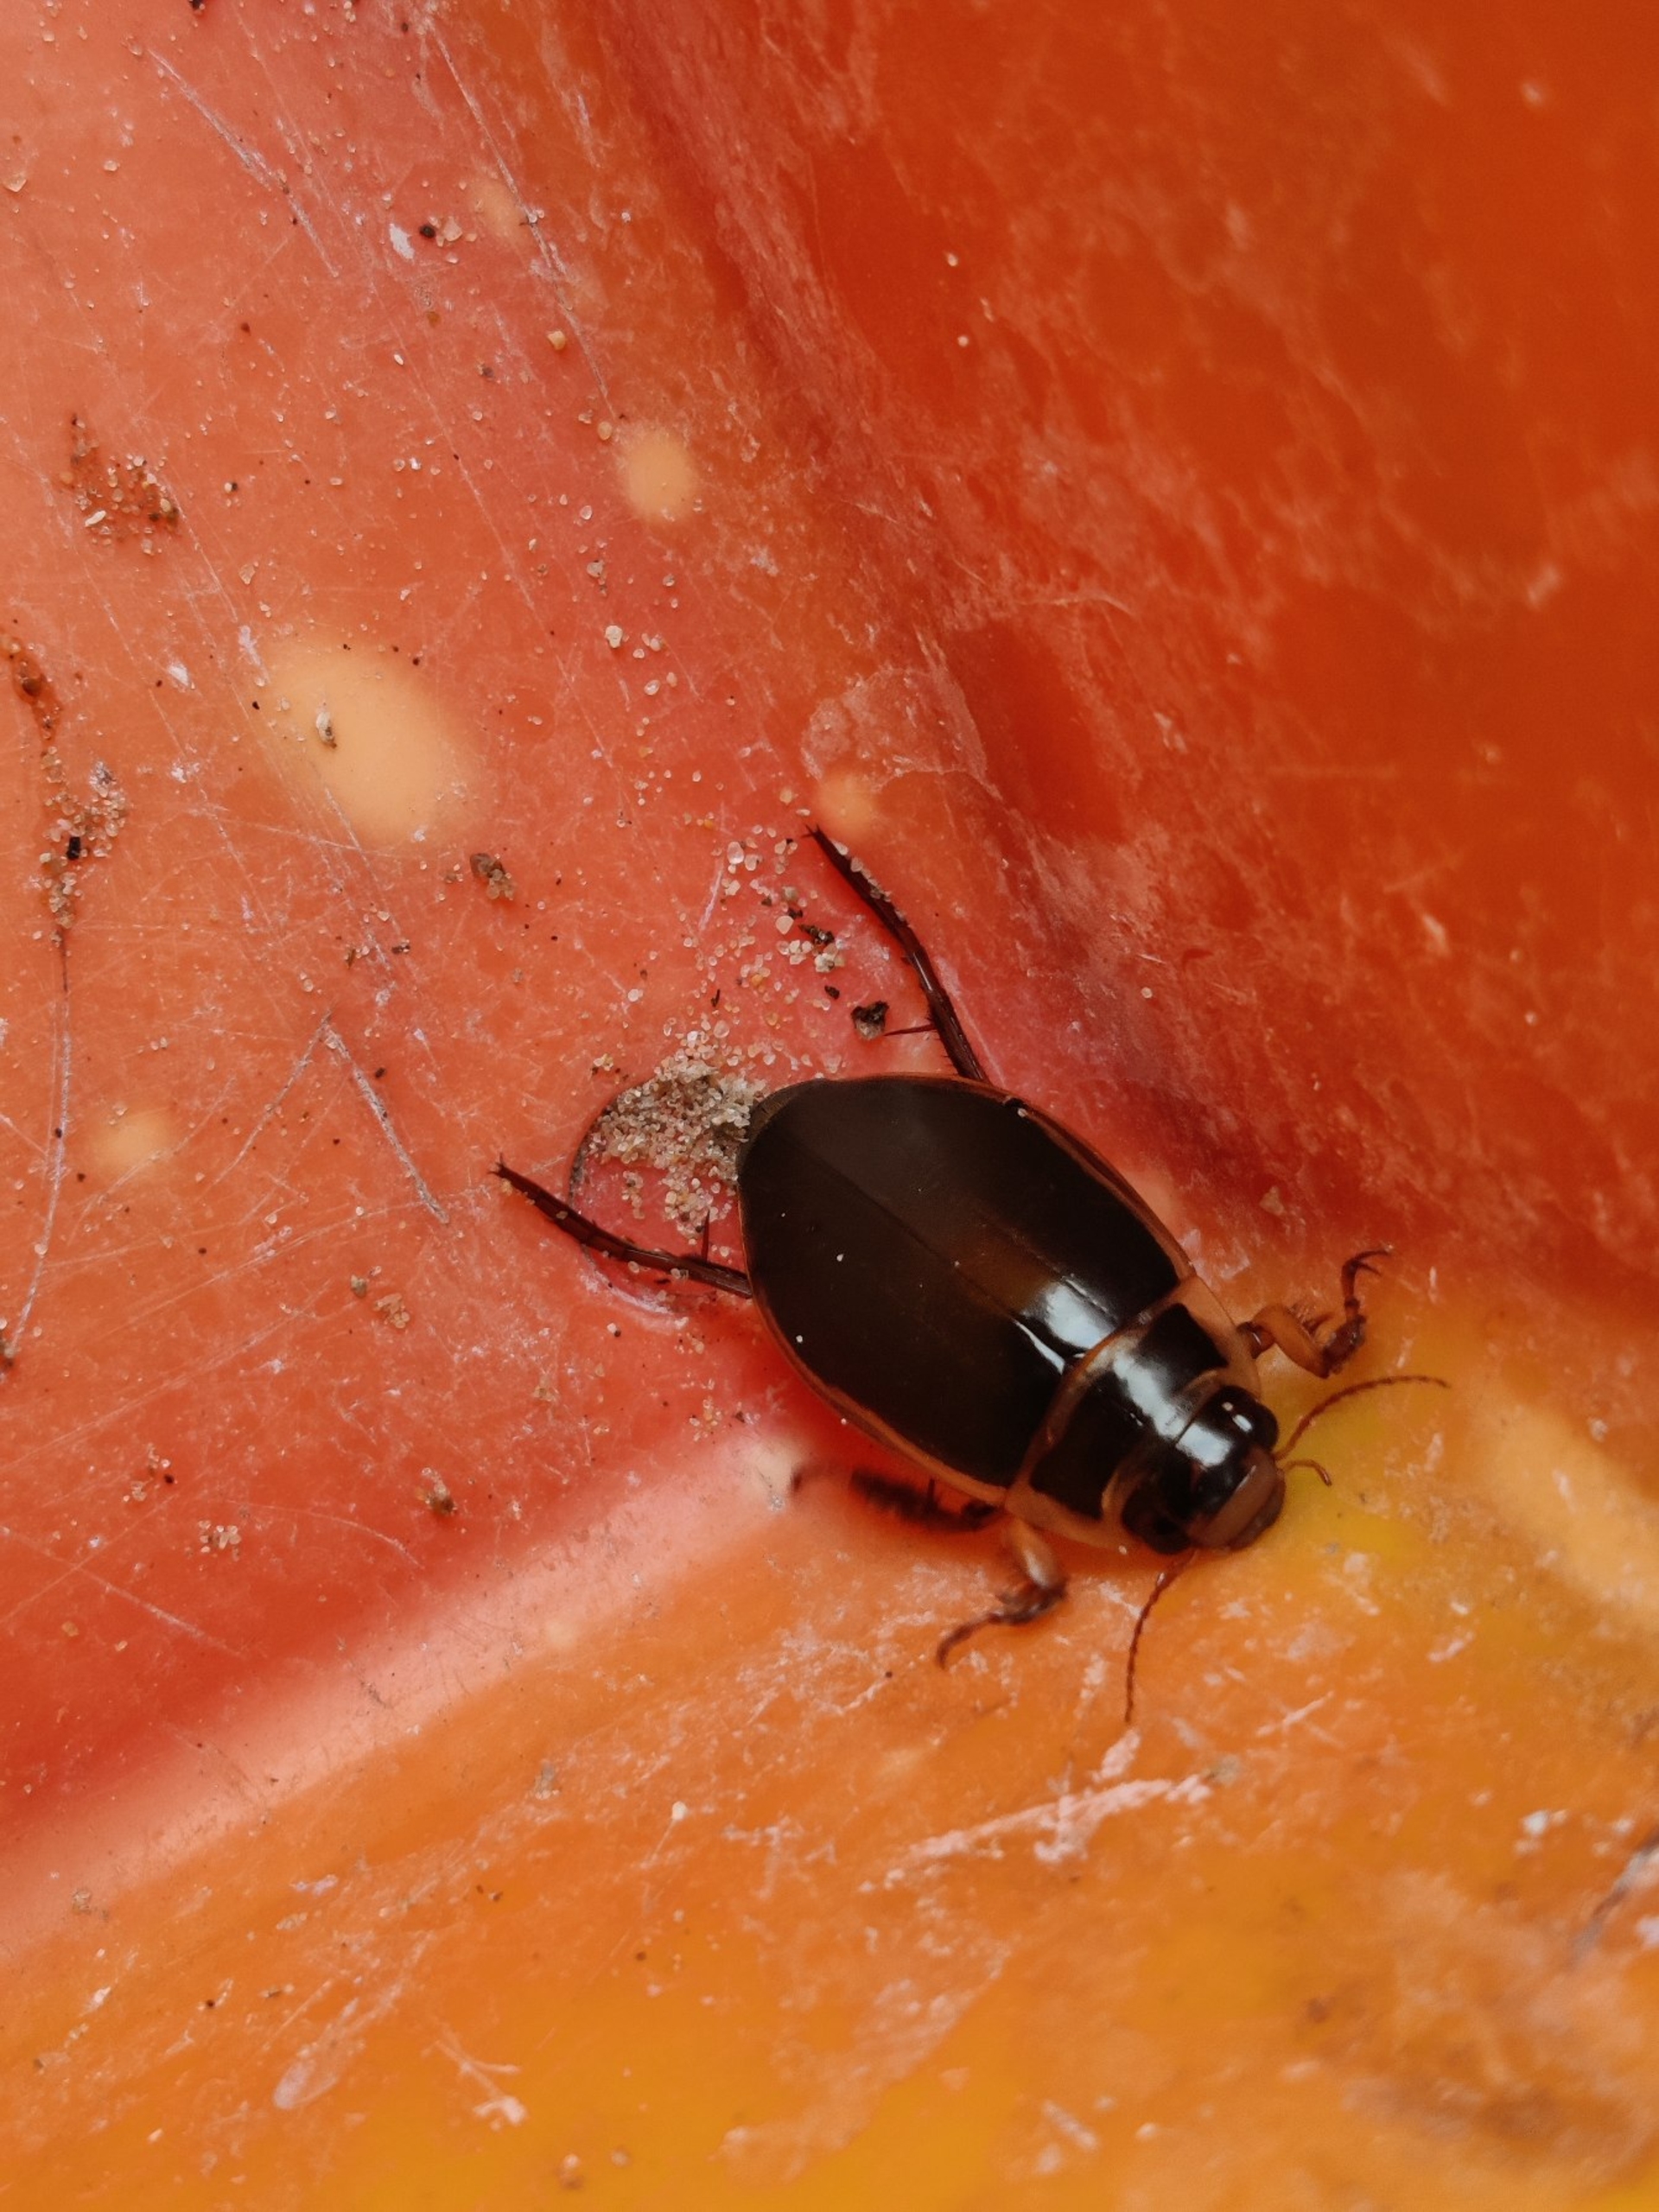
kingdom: Animalia
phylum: Arthropoda
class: Insecta
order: Coleoptera
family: Dytiscidae
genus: Dytiscus
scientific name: Dytiscus marginalis
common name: Stor vandkalv
